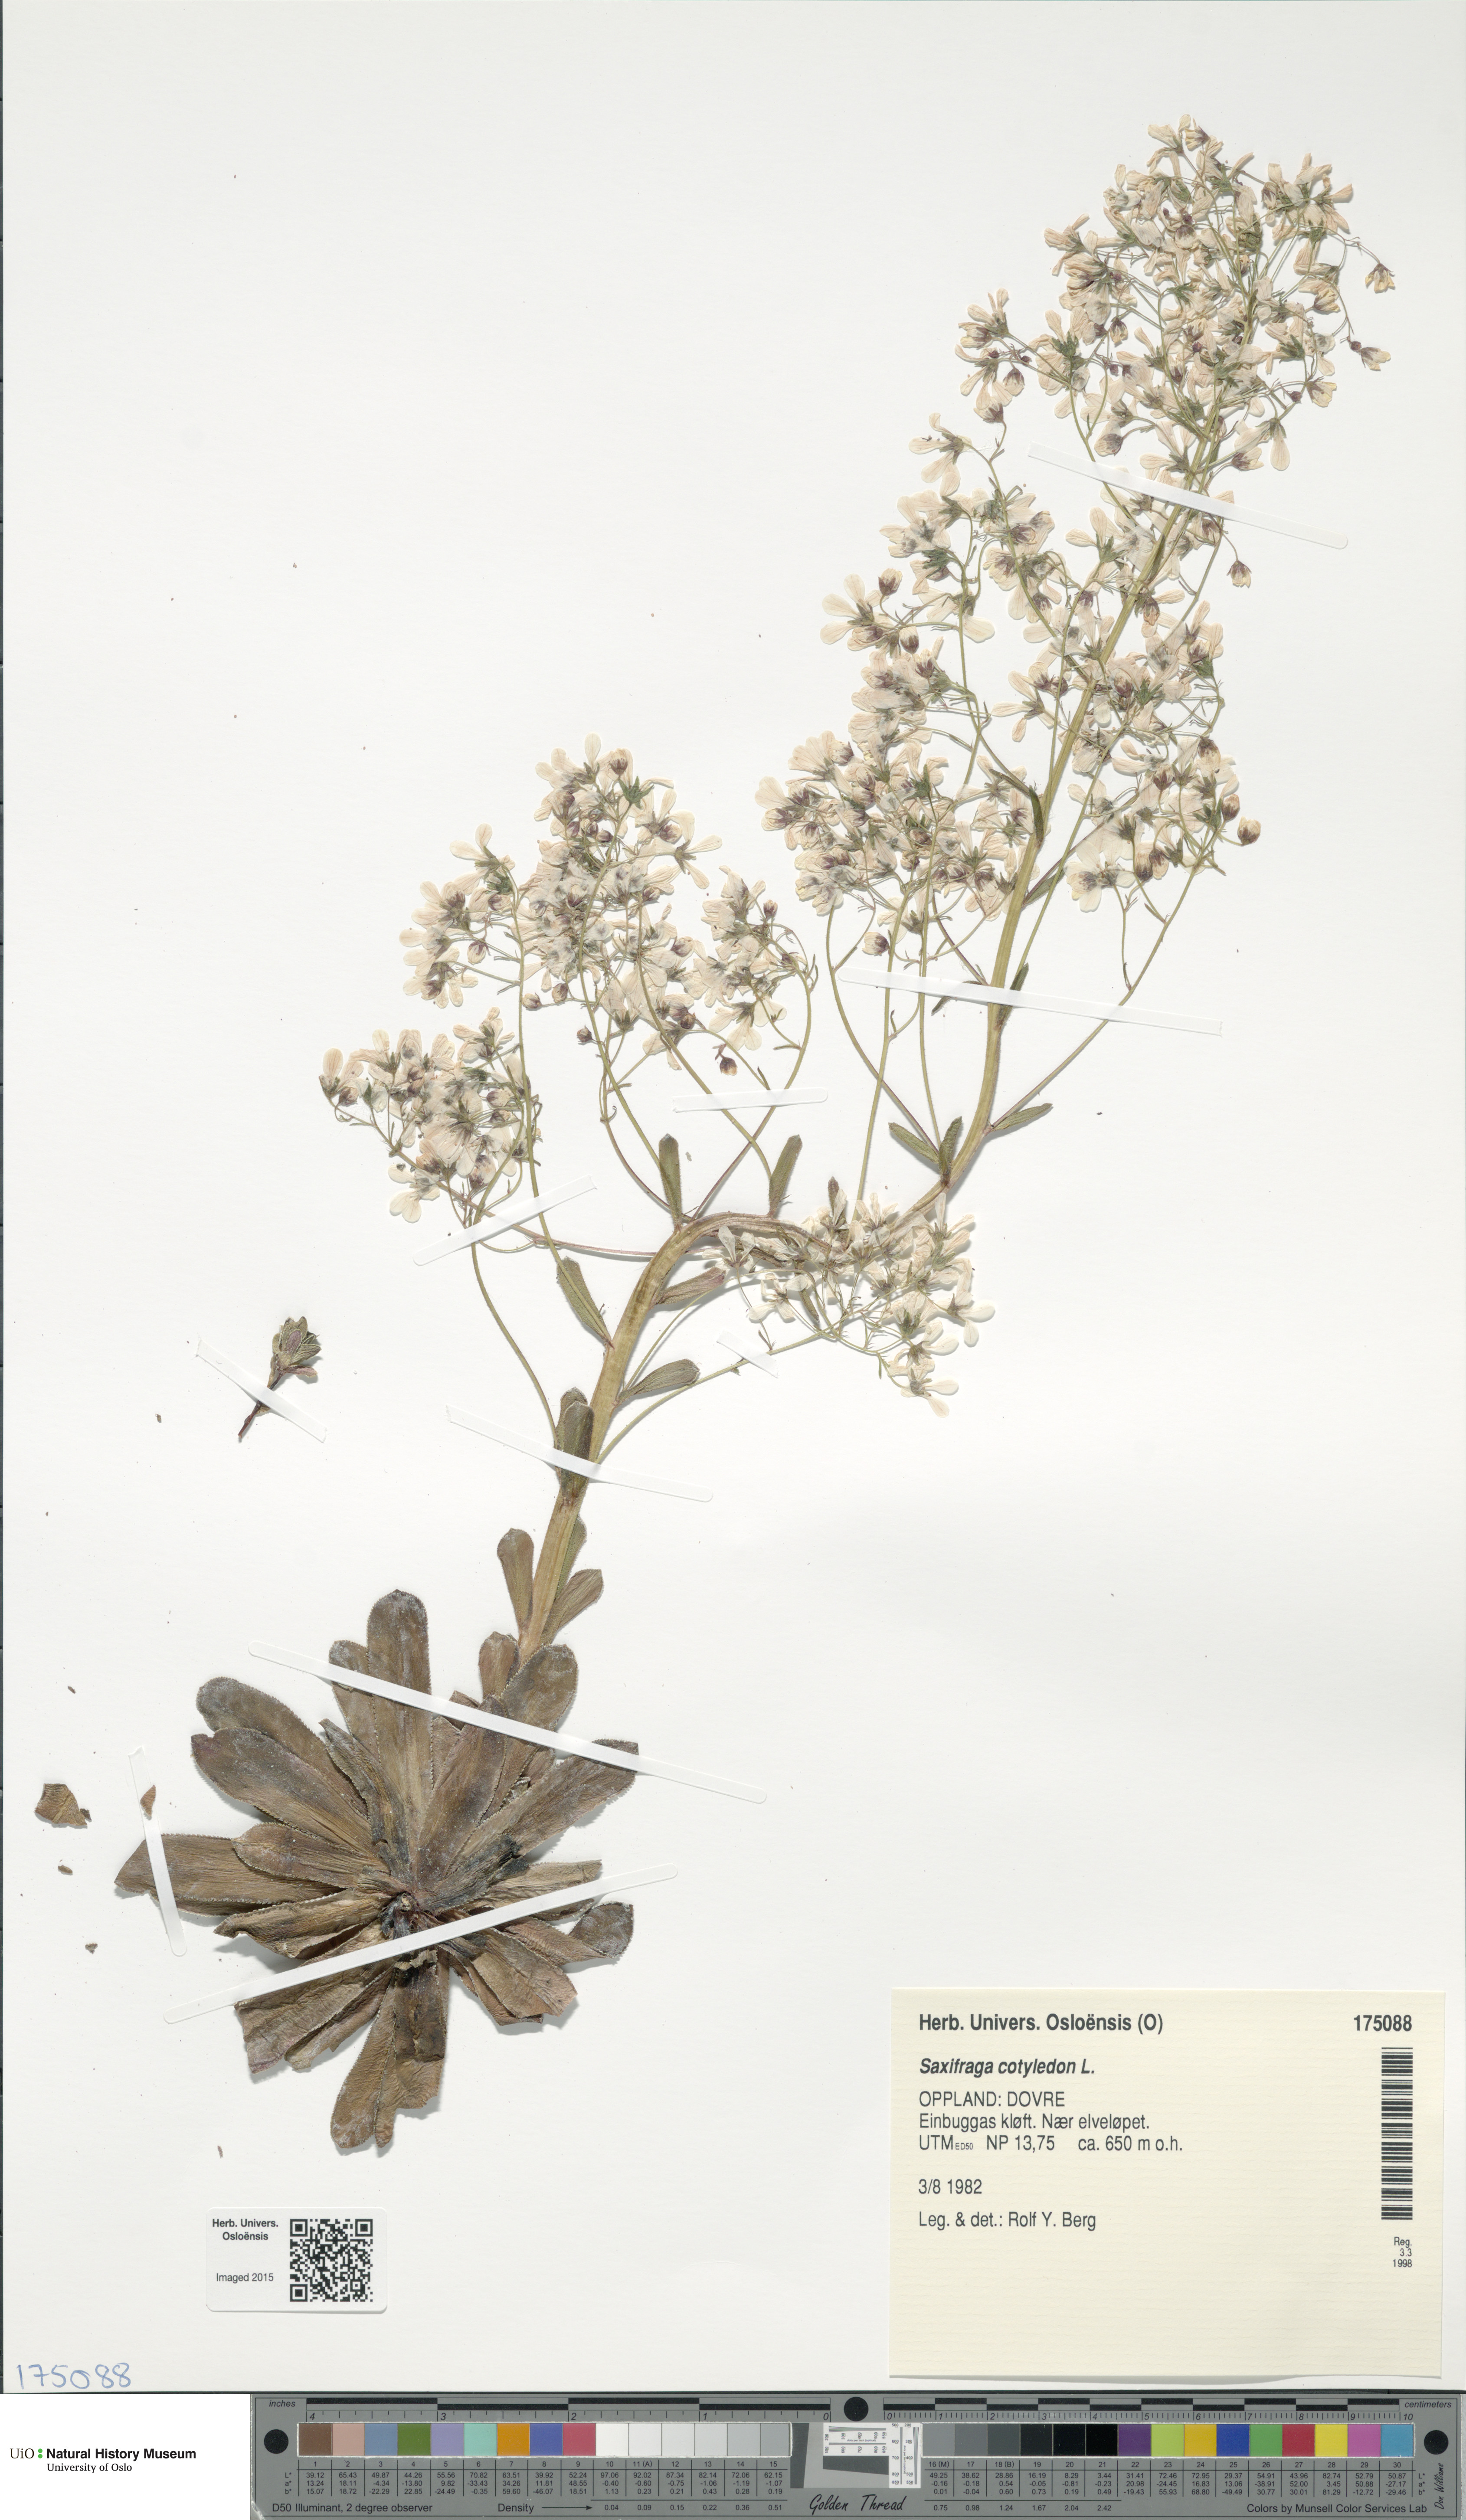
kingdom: Plantae
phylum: Tracheophyta
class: Magnoliopsida
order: Saxifragales
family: Saxifragaceae
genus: Saxifraga
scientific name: Saxifraga cotyledon
